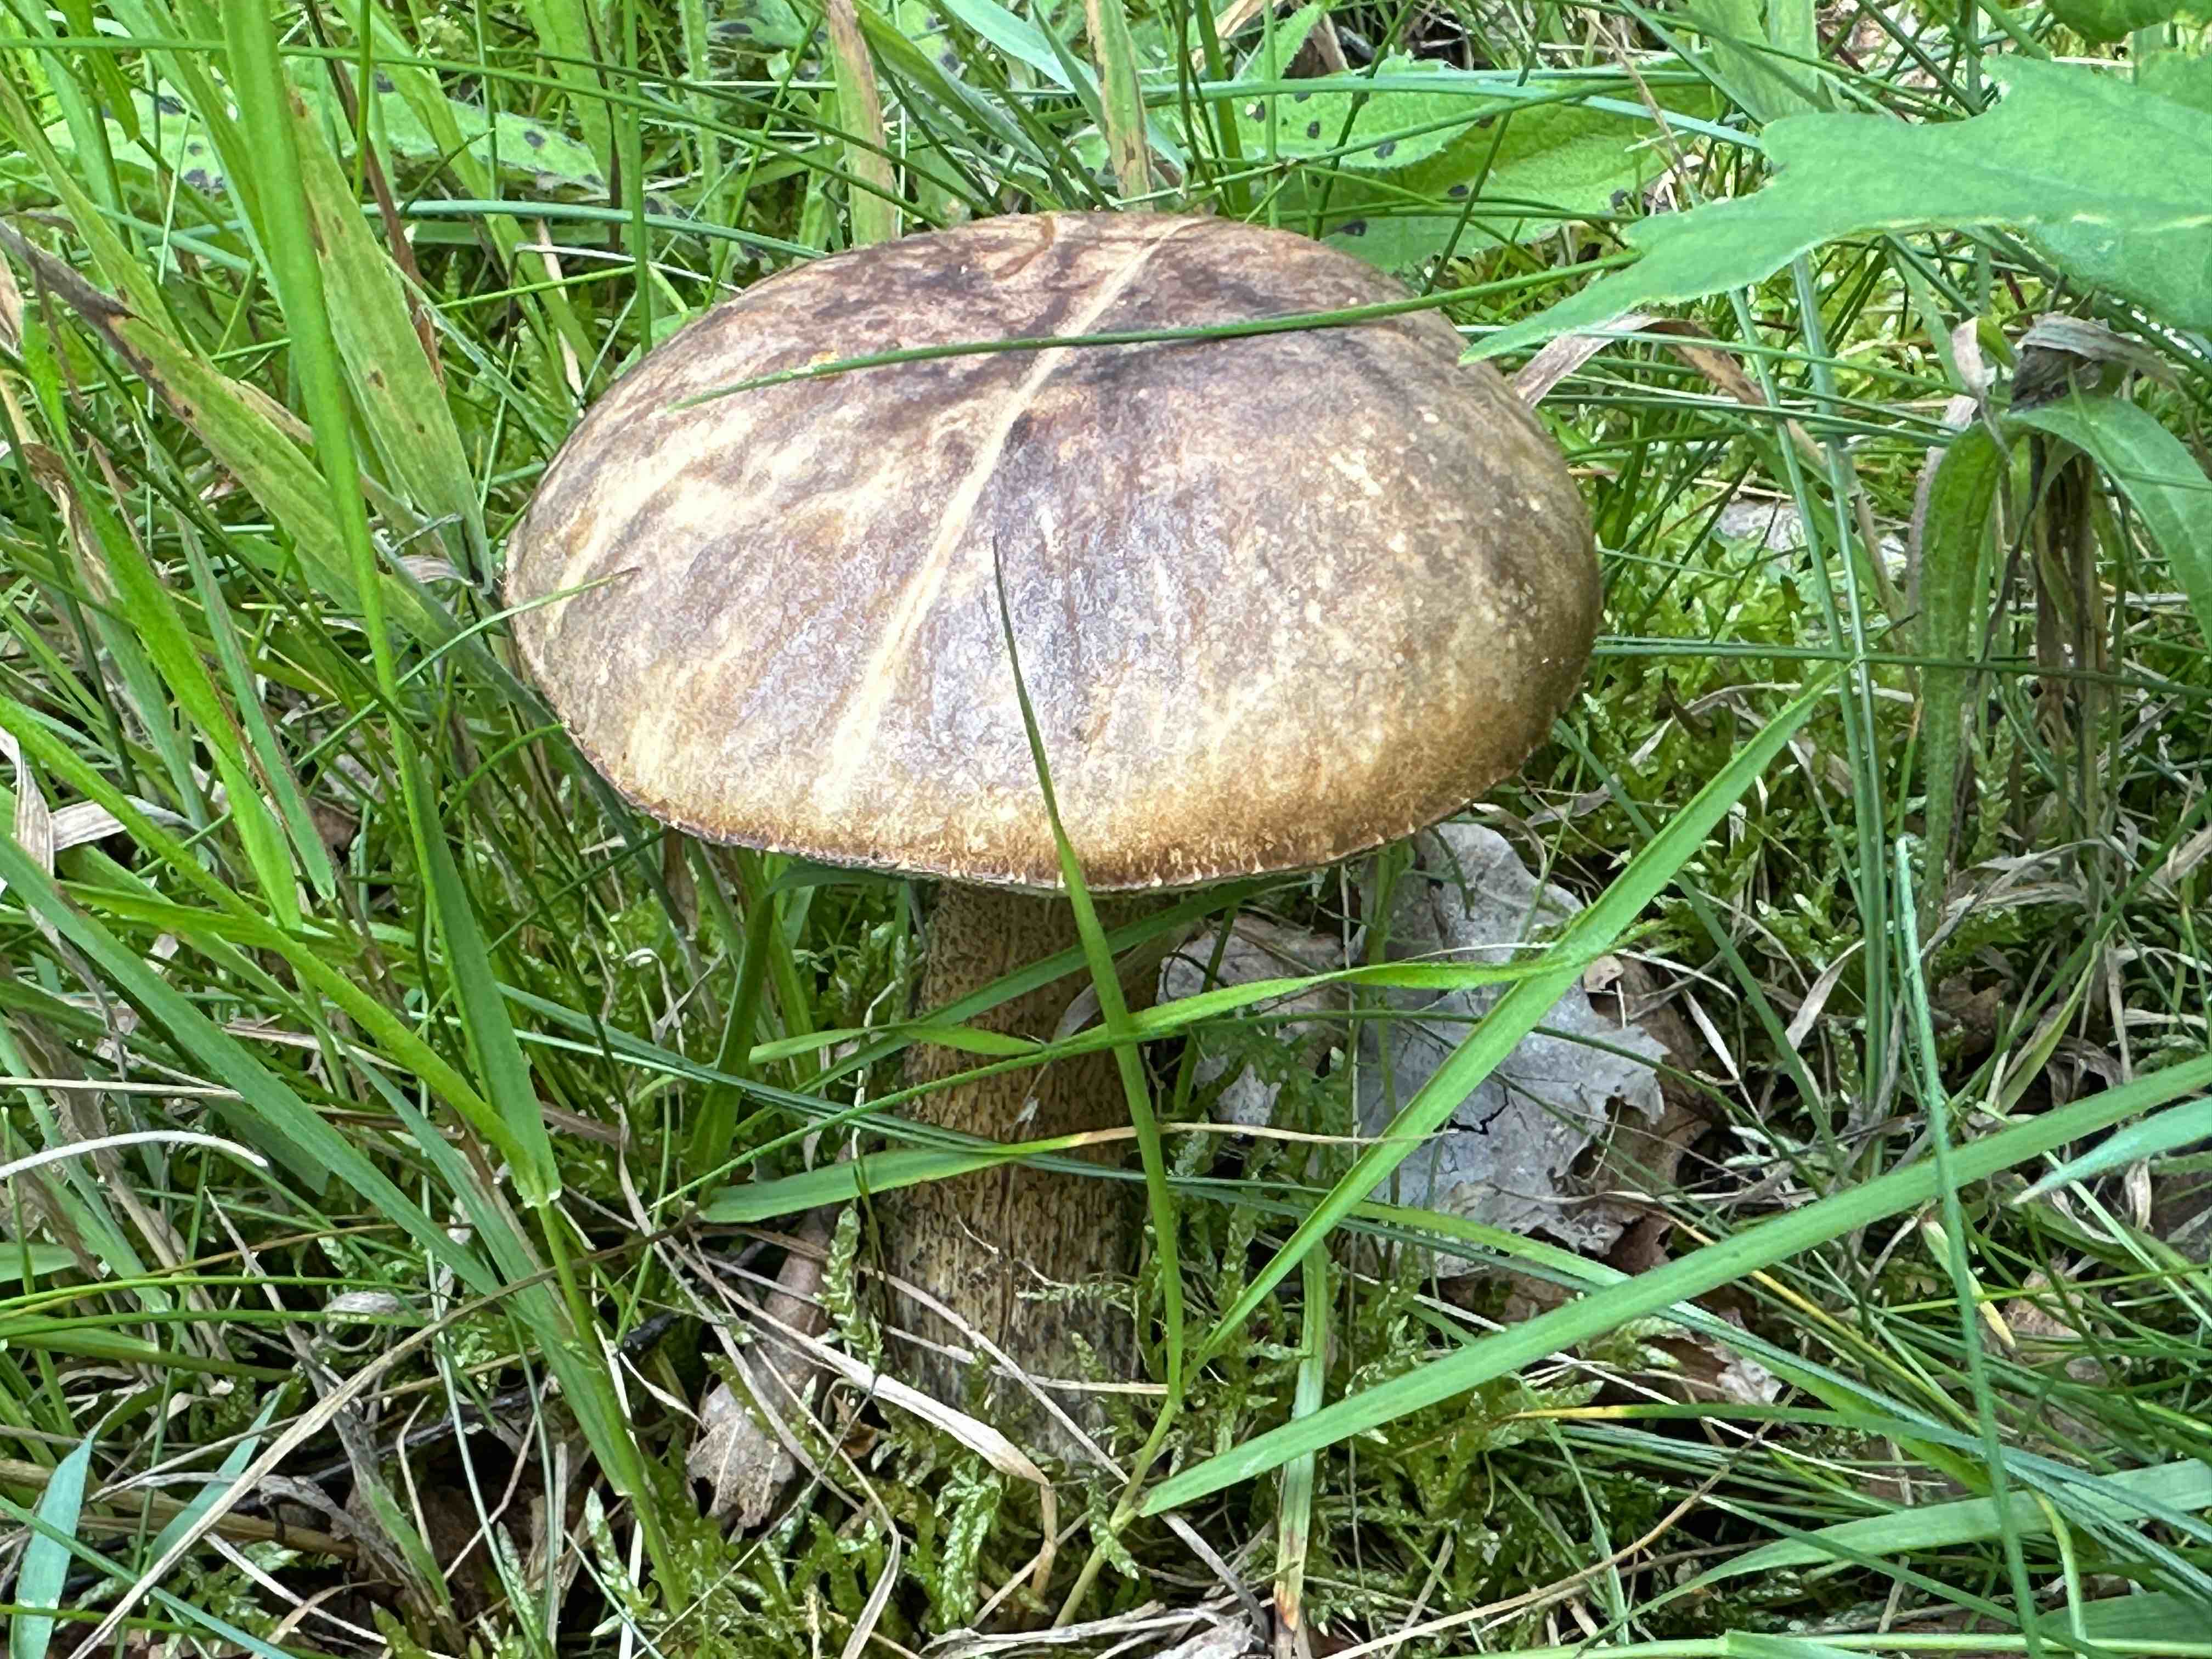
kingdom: Fungi
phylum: Basidiomycota
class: Agaricomycetes
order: Boletales
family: Boletaceae
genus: Leccinum
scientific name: Leccinum scabrum
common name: brun skælrørhat
